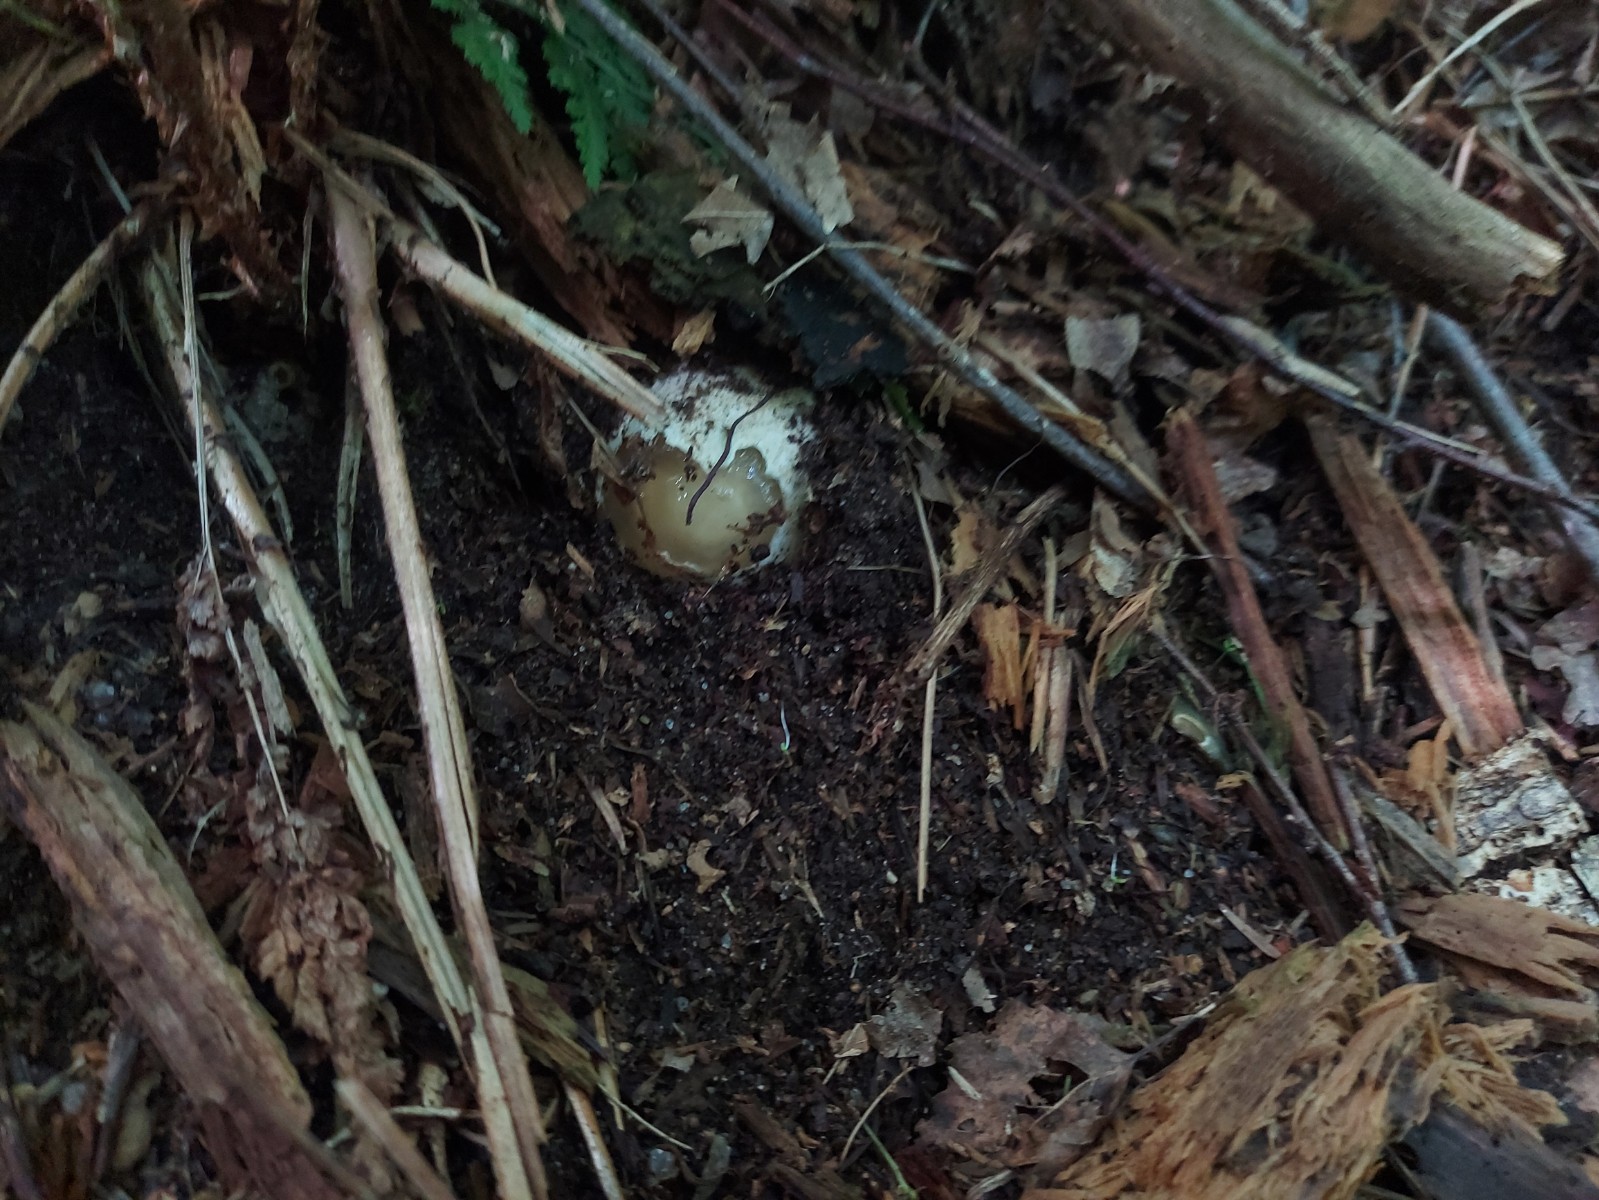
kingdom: Fungi
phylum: Basidiomycota
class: Agaricomycetes
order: Phallales
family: Phallaceae
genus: Phallus
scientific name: Phallus impudicus
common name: almindelig stinksvamp
